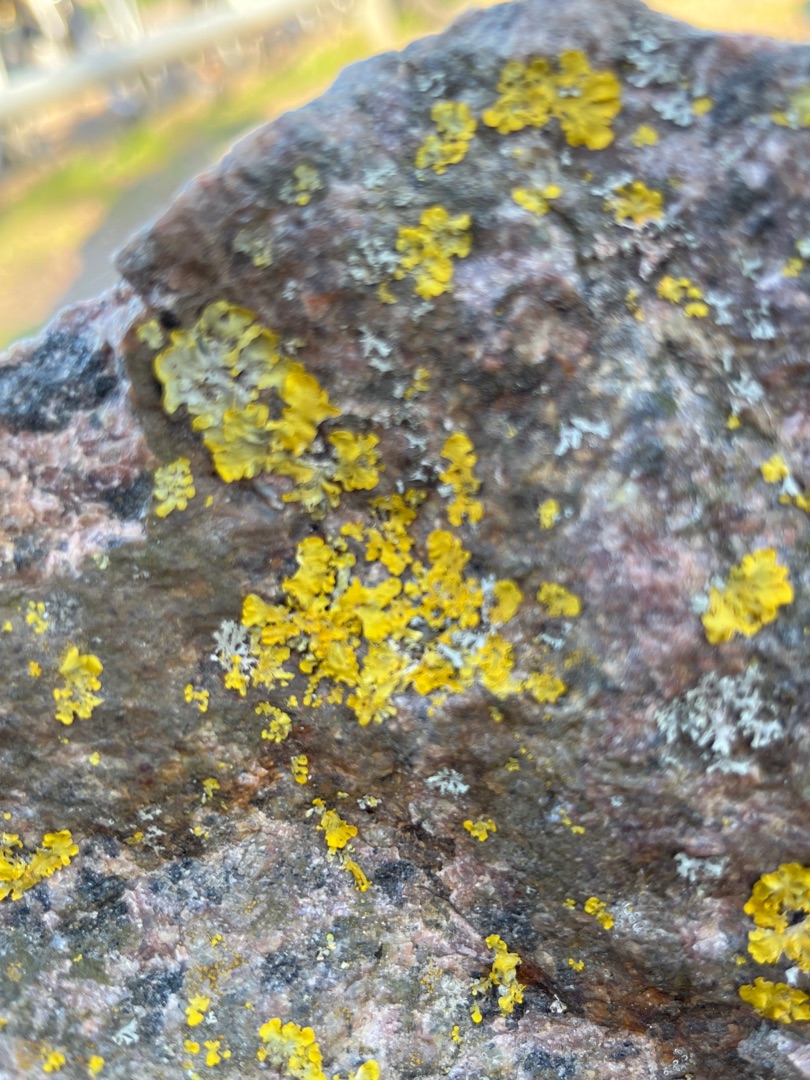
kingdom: Fungi
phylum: Ascomycota
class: Lecanoromycetes
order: Teloschistales
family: Teloschistaceae
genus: Xanthoria
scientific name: Xanthoria parietina
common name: Almindelig væggelav
